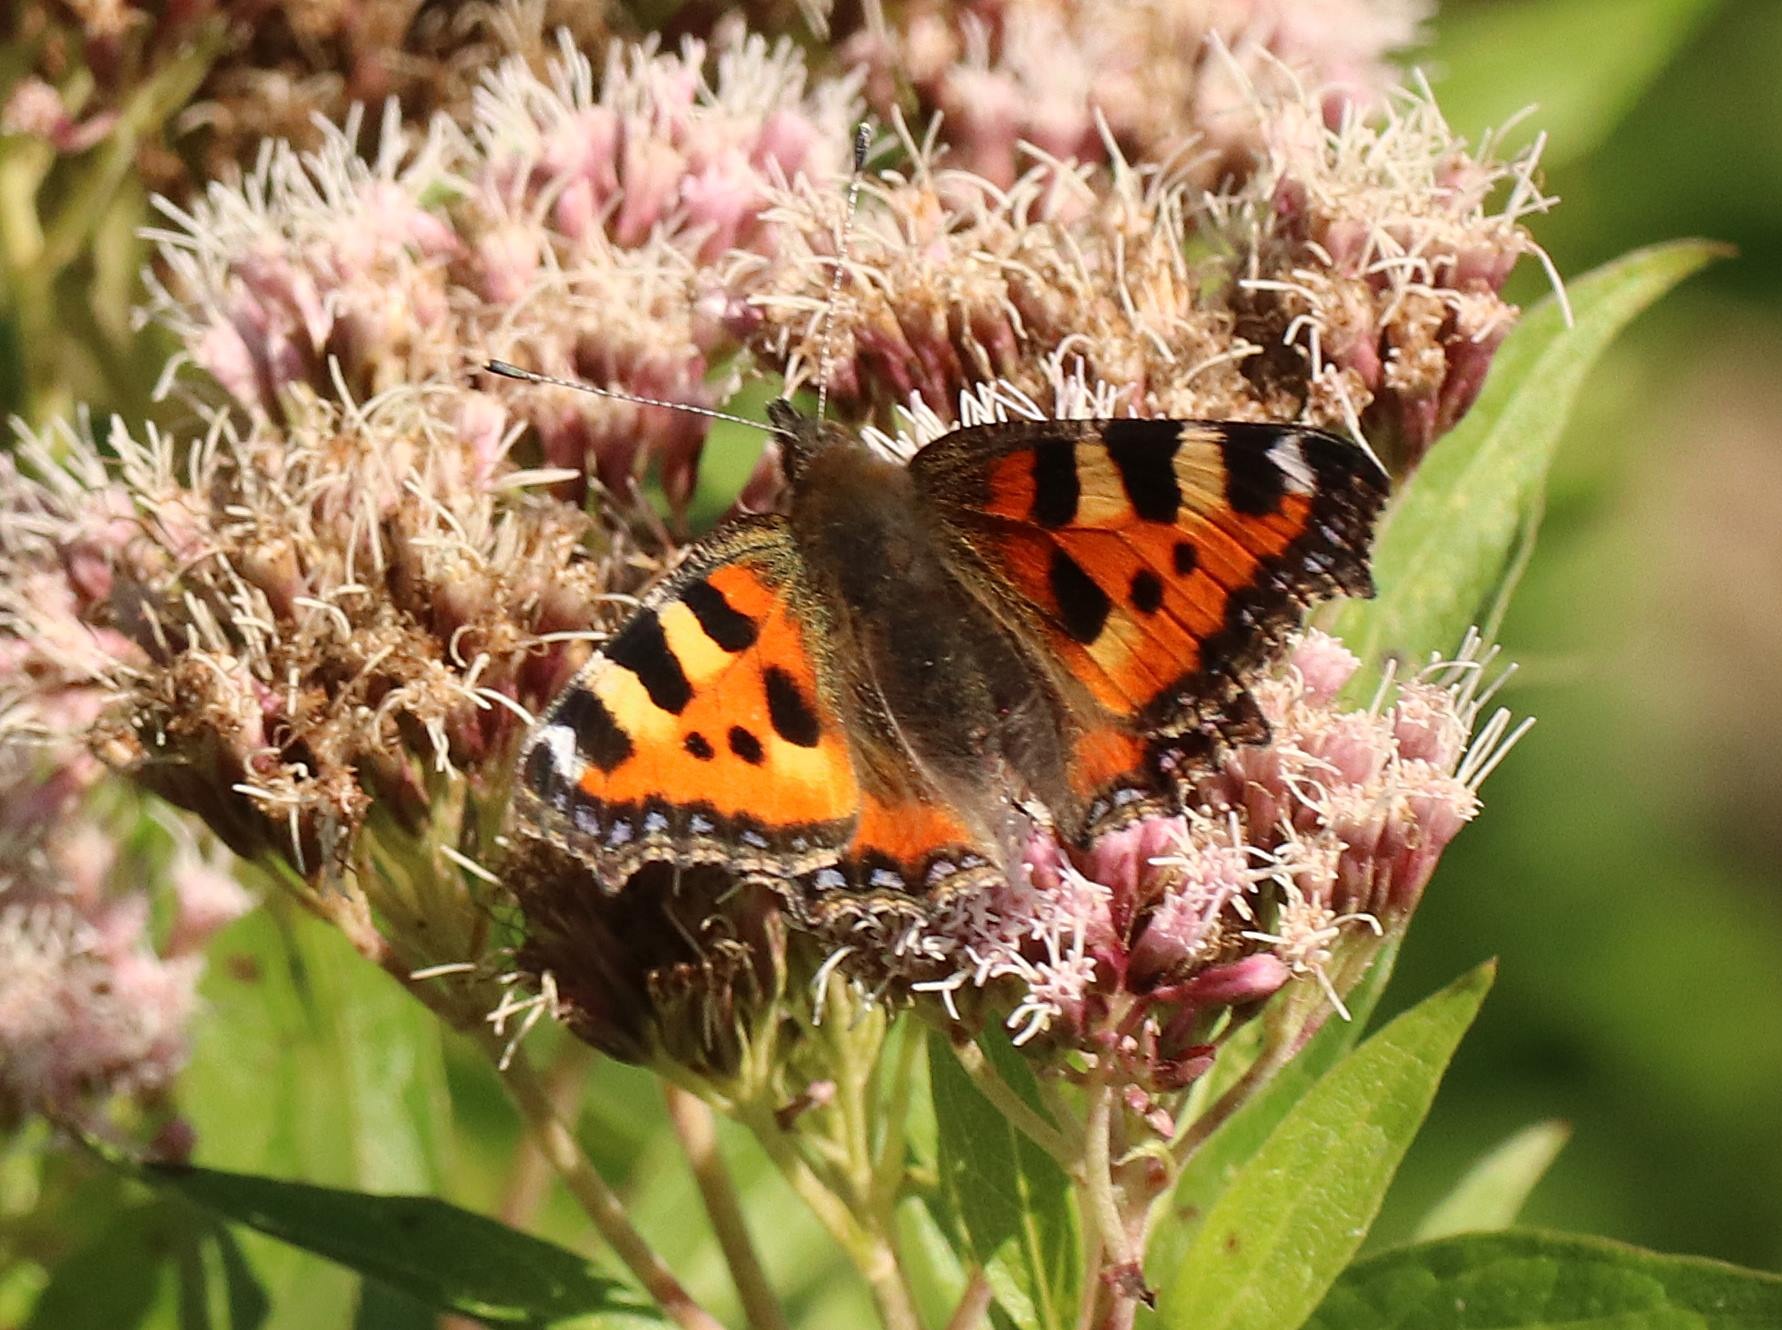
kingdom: Animalia
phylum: Arthropoda
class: Insecta
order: Lepidoptera
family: Nymphalidae
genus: Aglais
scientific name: Aglais urticae
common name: Nældens takvinge
